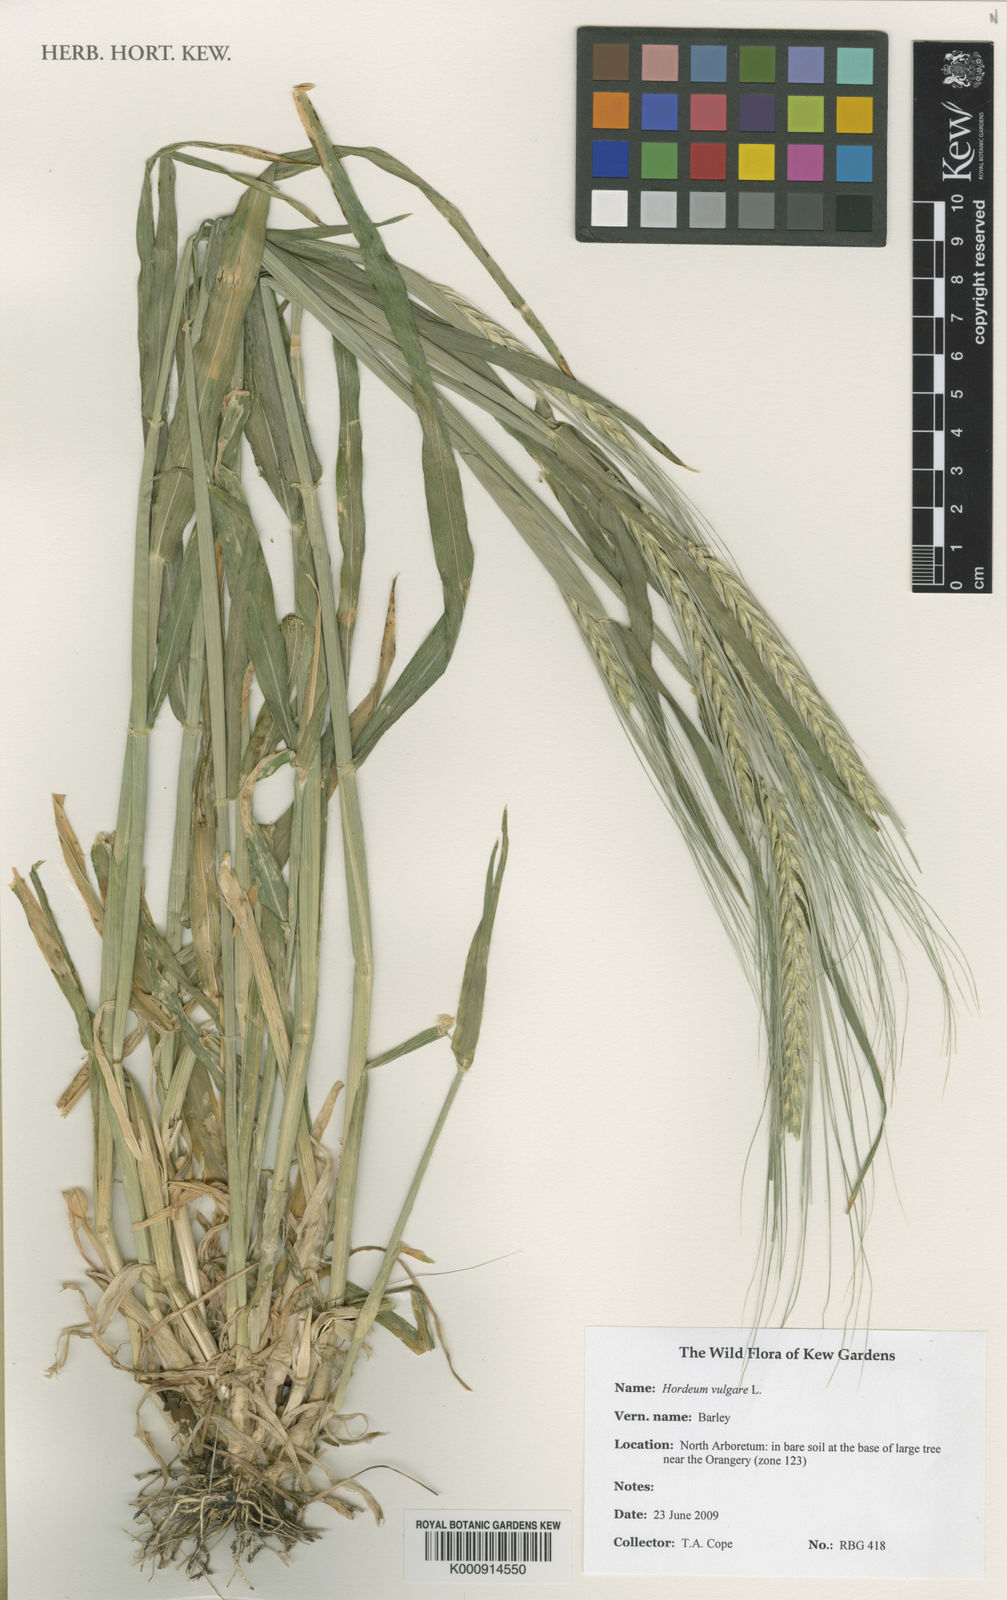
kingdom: Plantae
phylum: Tracheophyta
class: Liliopsida
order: Poales
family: Poaceae
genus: Hordeum
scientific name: Hordeum vulgare
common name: Common barley
